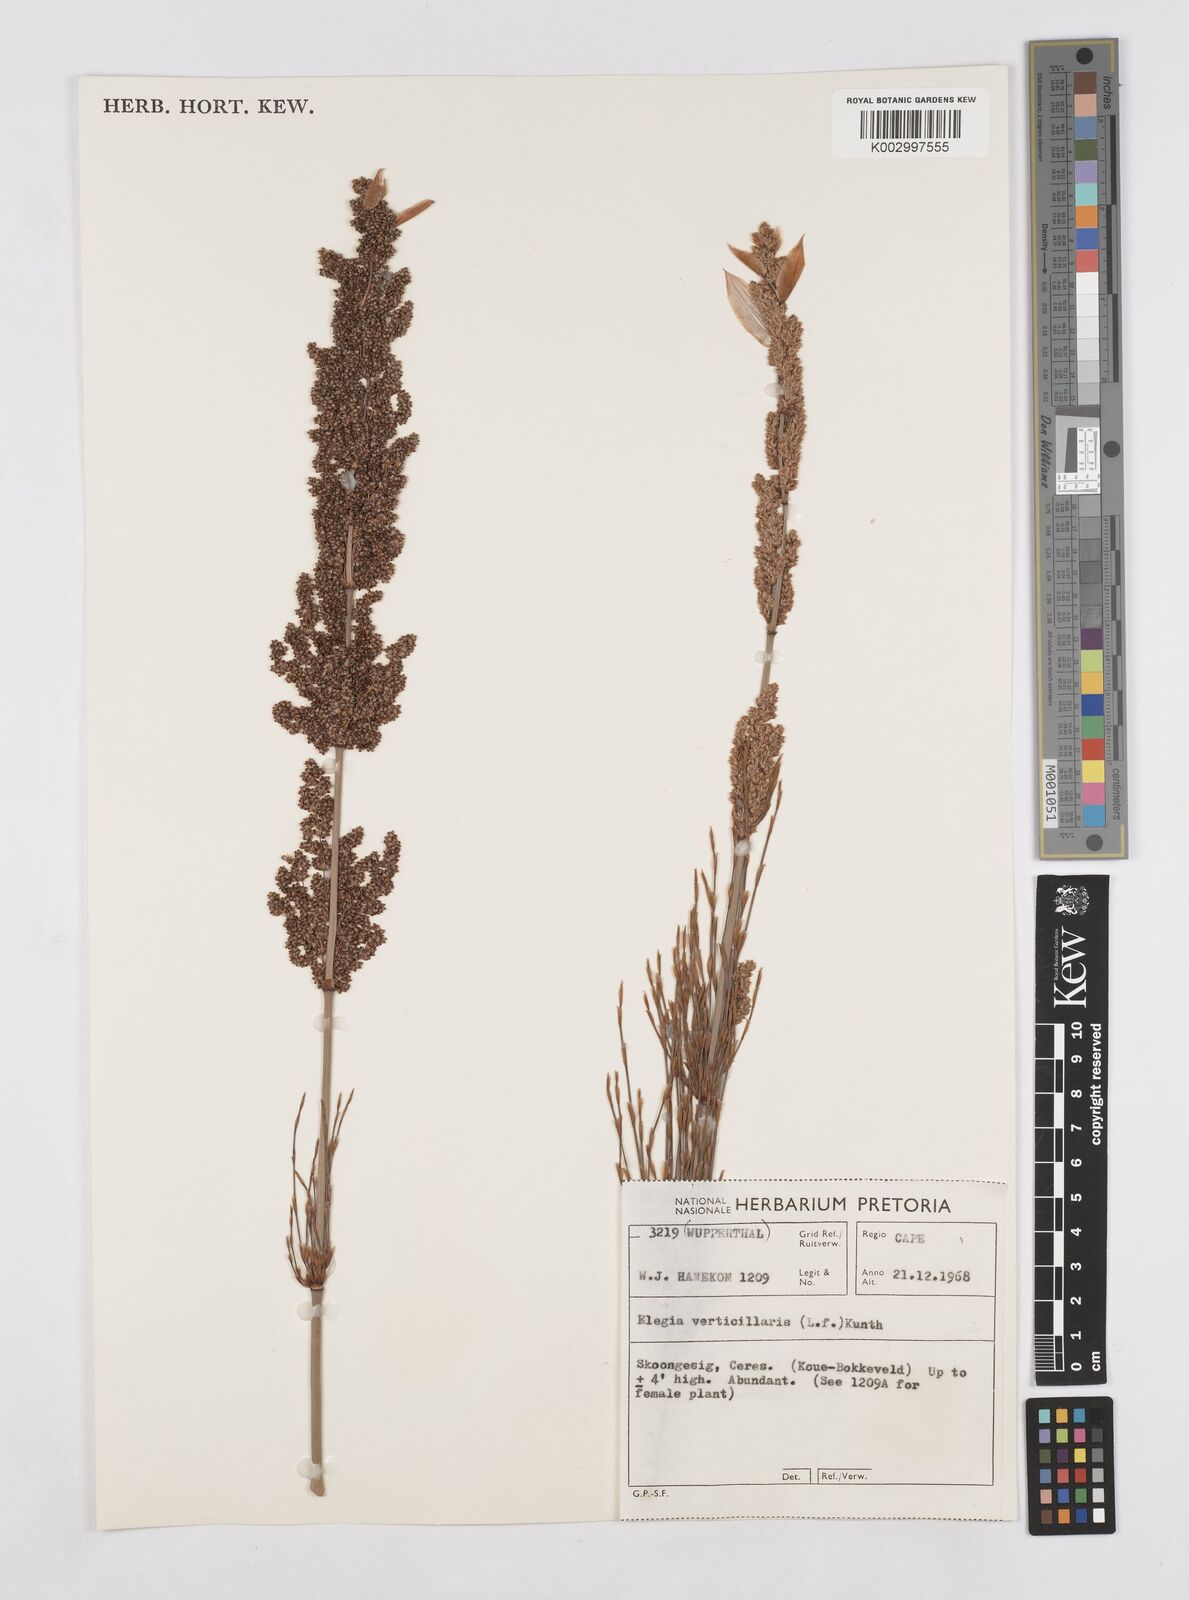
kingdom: Plantae
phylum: Tracheophyta
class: Liliopsida
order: Poales
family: Restionaceae
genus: Elegia
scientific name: Elegia capensis
